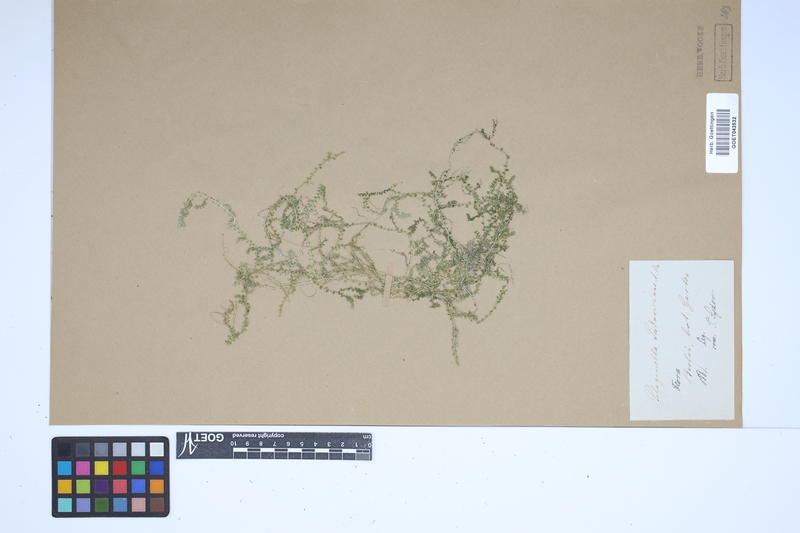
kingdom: Plantae
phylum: Tracheophyta
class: Lycopodiopsida
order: Selaginellales
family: Selaginellaceae
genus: Selaginella
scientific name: Selaginella ludoviciana
